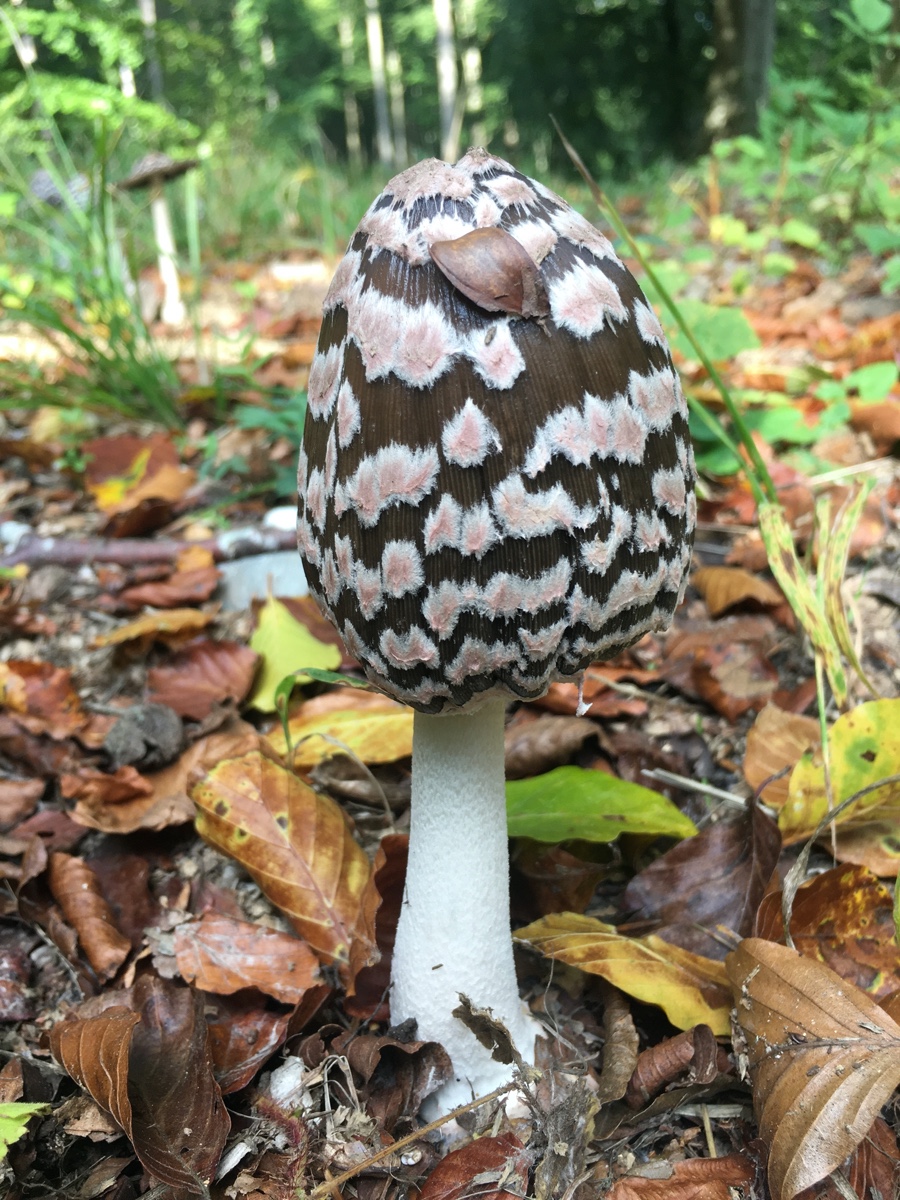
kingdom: Fungi
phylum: Basidiomycota
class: Agaricomycetes
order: Agaricales
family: Psathyrellaceae
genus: Coprinopsis
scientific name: Coprinopsis picacea
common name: skade-blækhat
